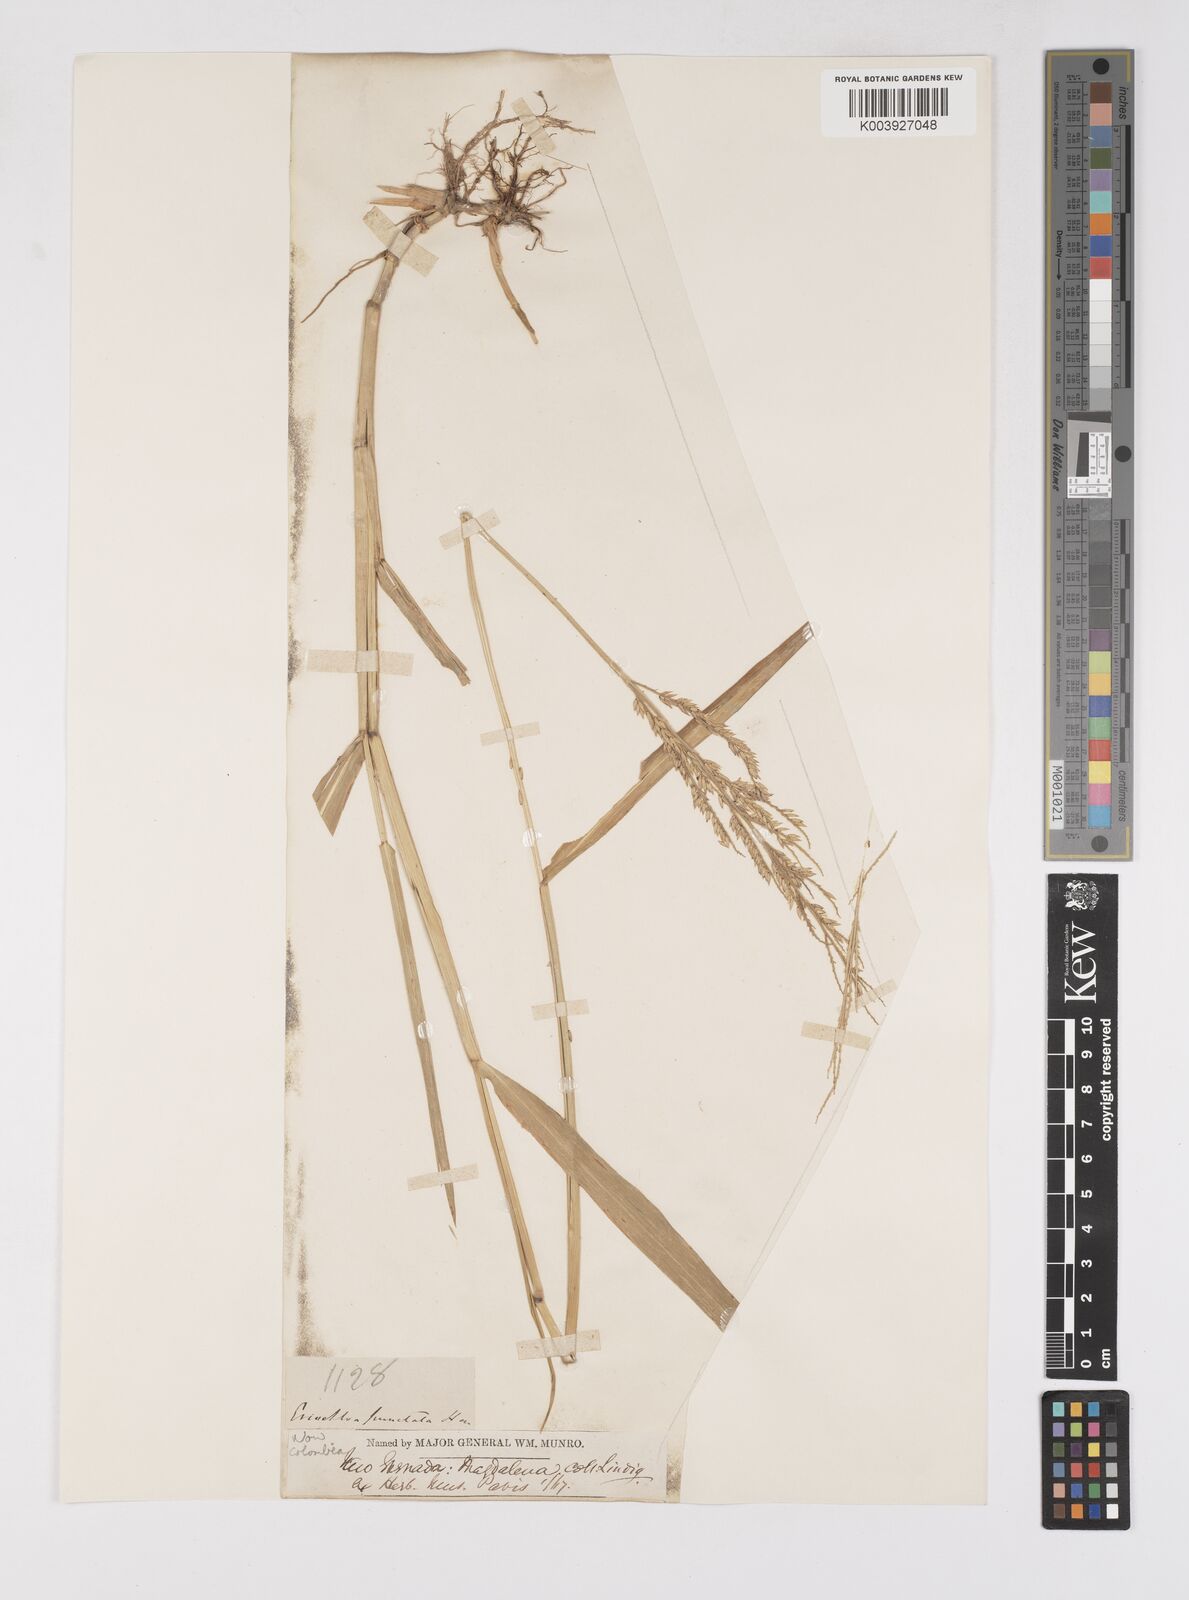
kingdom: Plantae
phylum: Tracheophyta
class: Liliopsida
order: Poales
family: Poaceae
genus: Eriochloa
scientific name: Eriochloa punctata
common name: Louisiana cupgrass
